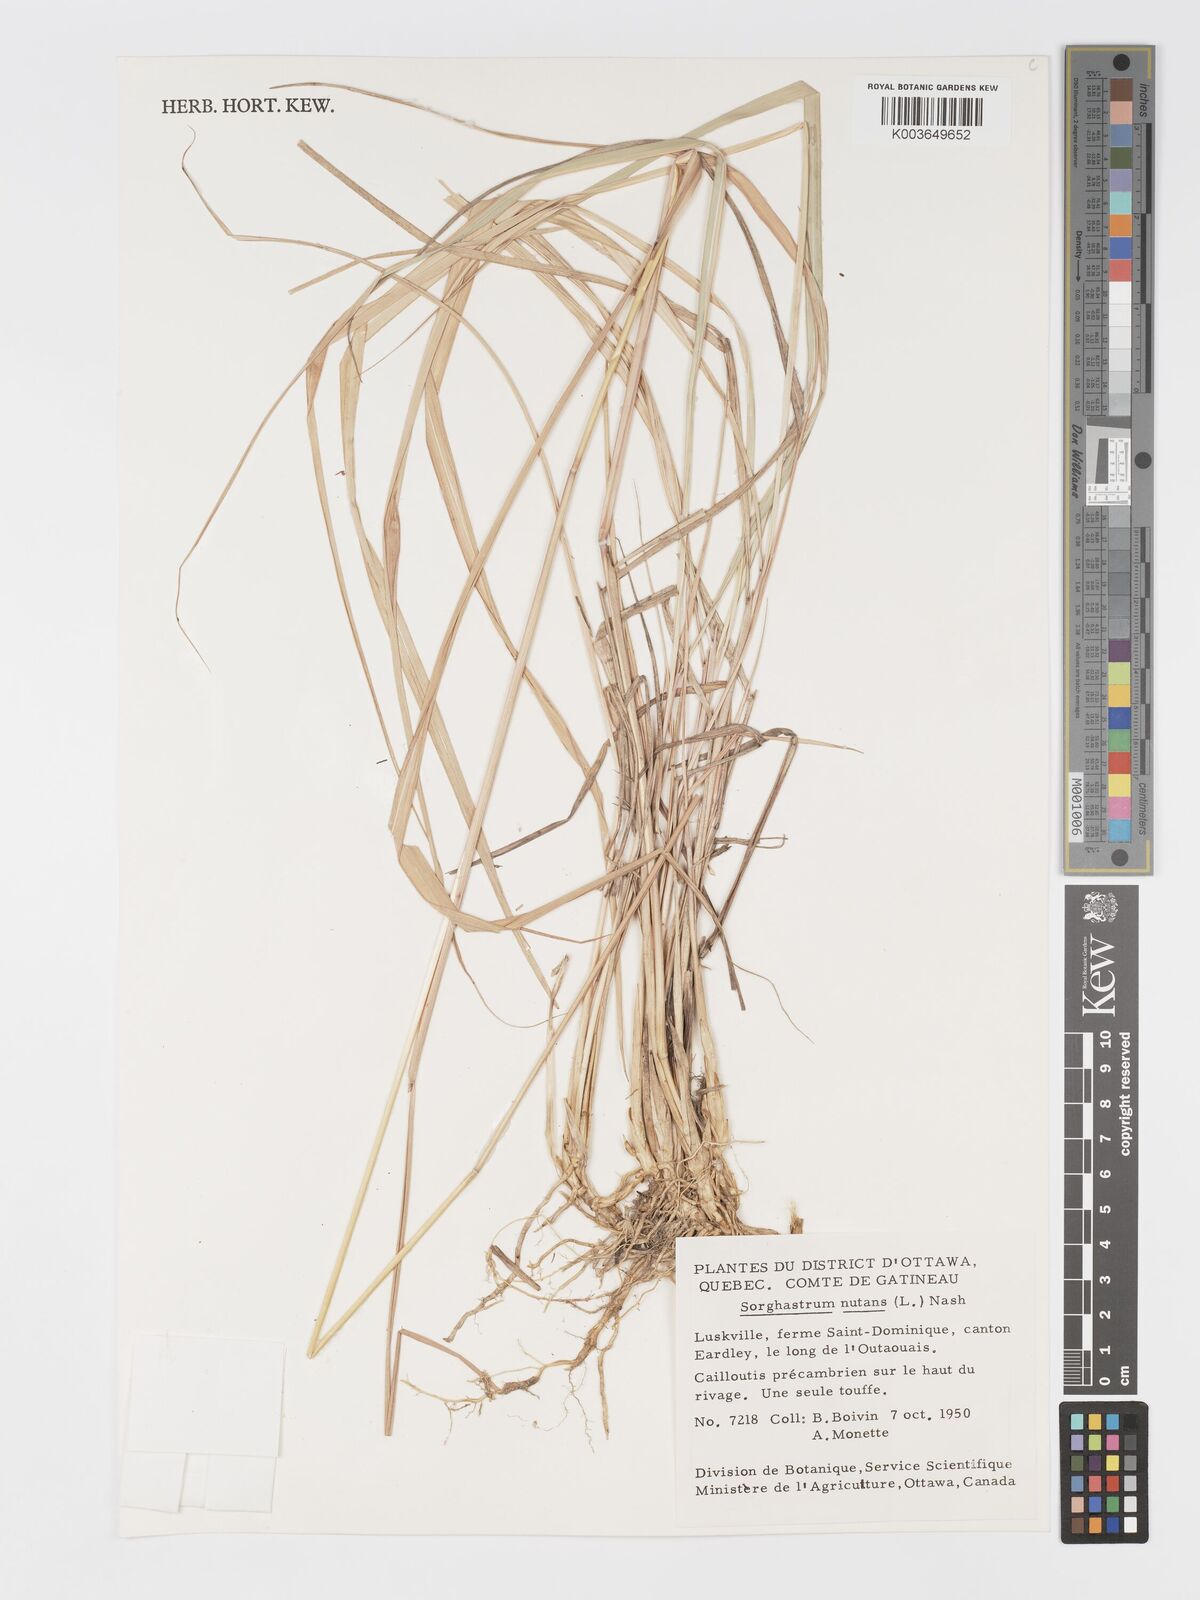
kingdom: Plantae
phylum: Tracheophyta
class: Liliopsida
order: Poales
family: Poaceae
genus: Sorghastrum
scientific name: Sorghastrum nutans
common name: Indian grass
